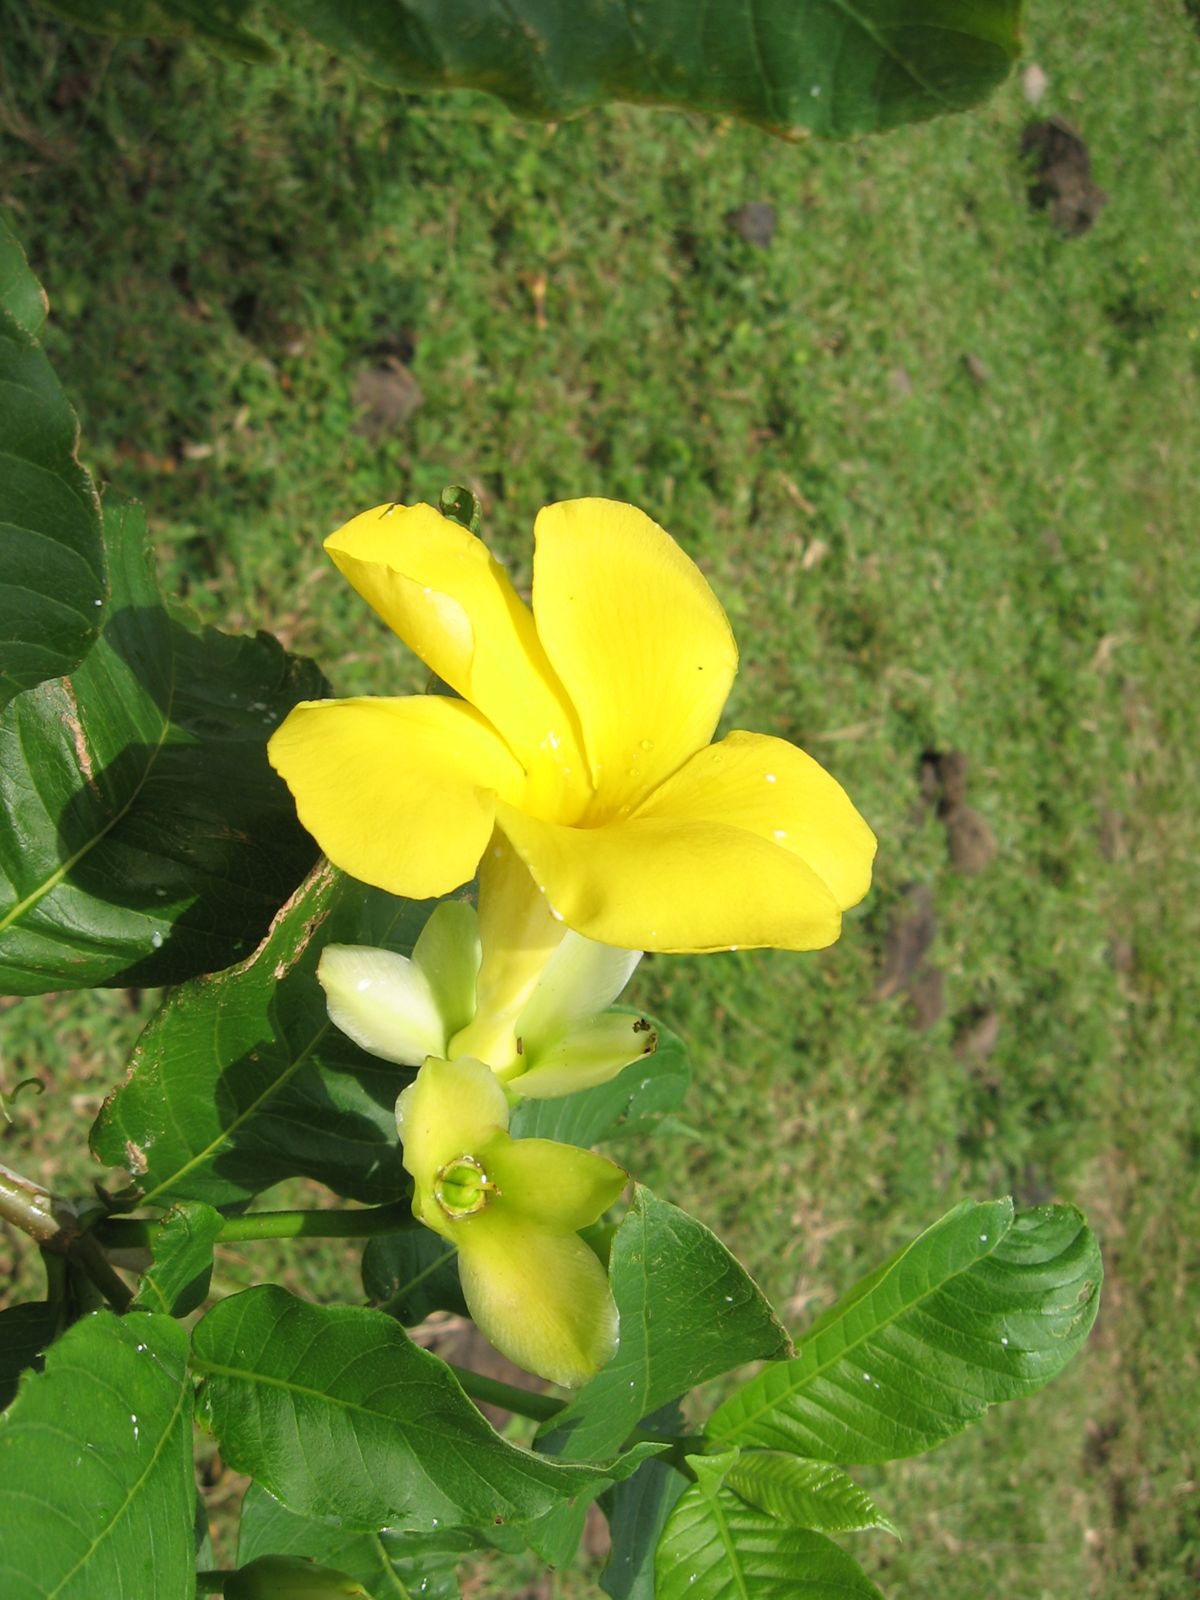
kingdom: Plantae
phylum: Tracheophyta
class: Magnoliopsida
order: Gentianales
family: Apocynaceae
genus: Tabernaemontana
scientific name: Tabernaemontana glabra
